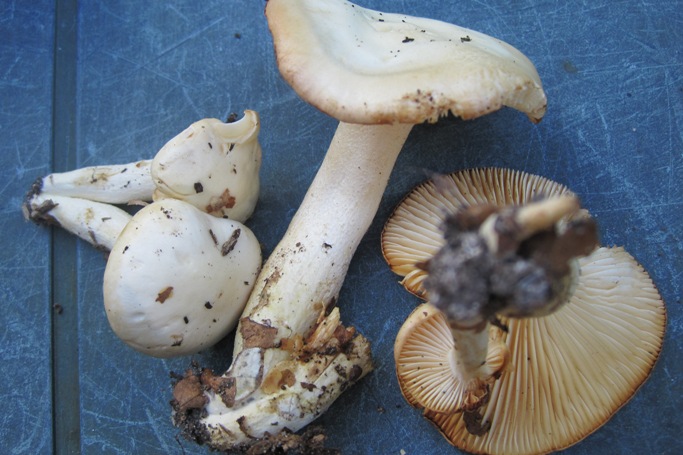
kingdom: Fungi
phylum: Basidiomycota
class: Agaricomycetes
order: Agaricales
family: Hygrophoraceae
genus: Hygrophorus
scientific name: Hygrophorus discoxanthus
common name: ildelugtende sneglehat
